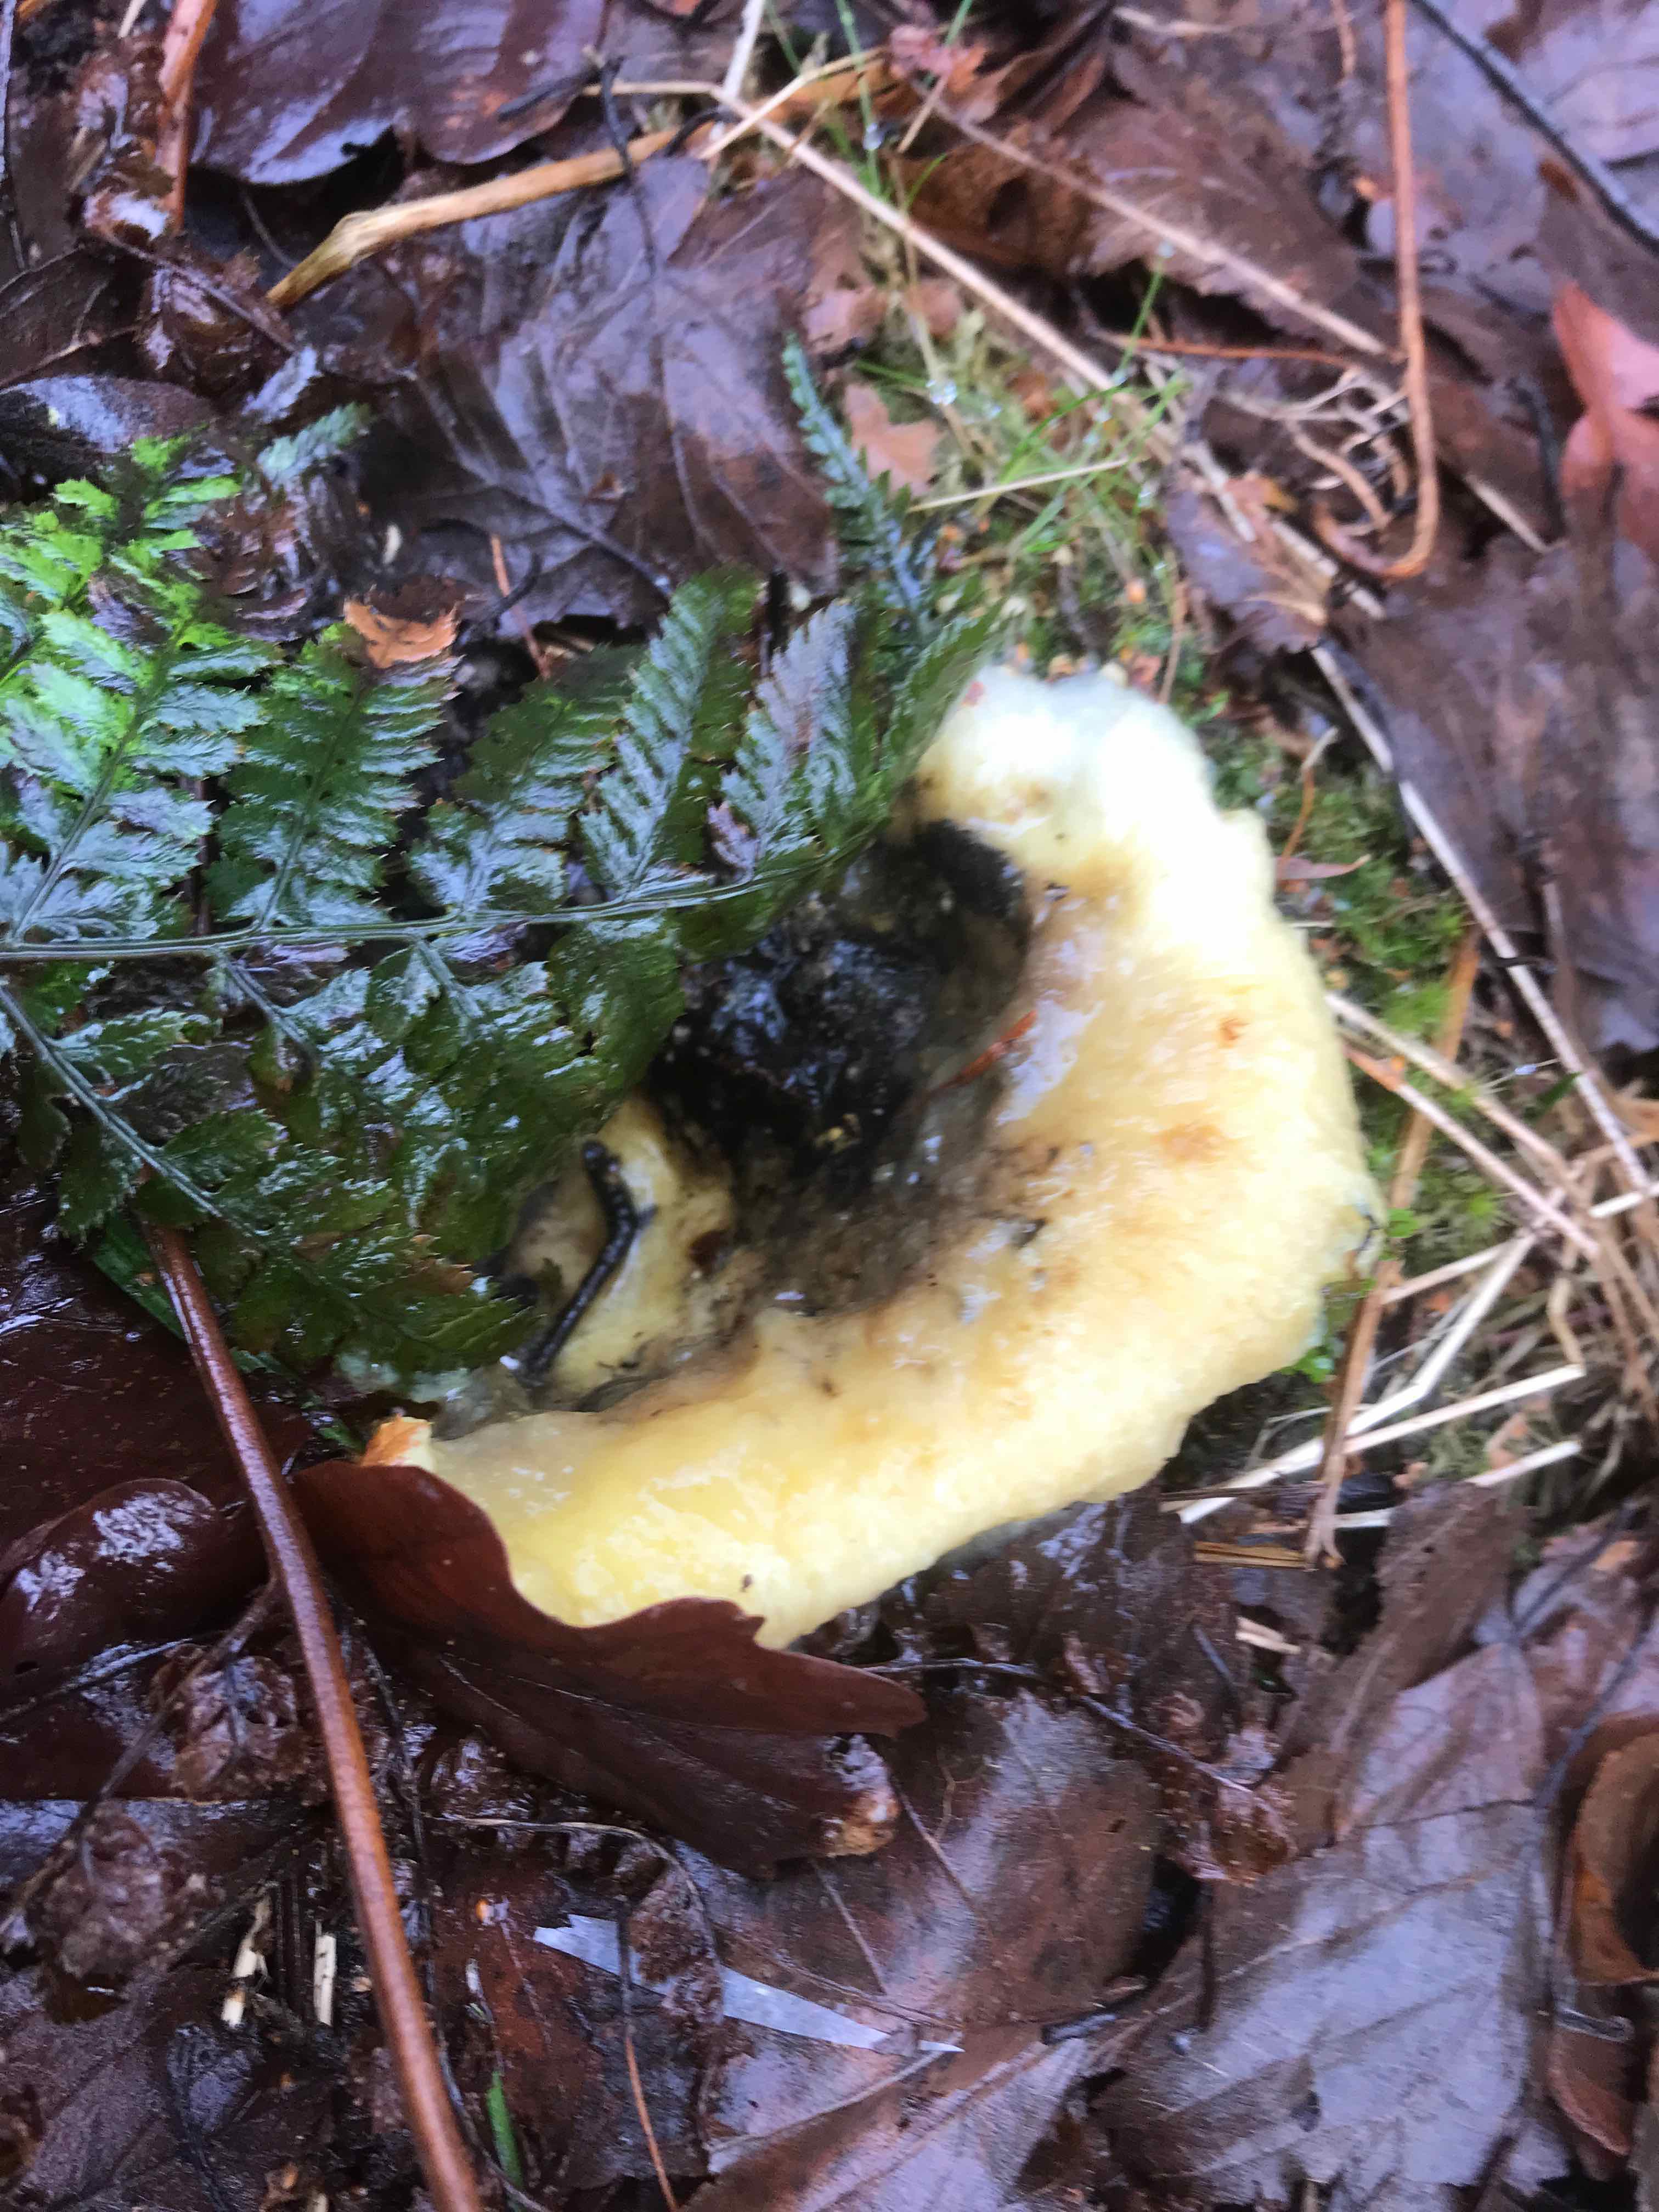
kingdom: Fungi
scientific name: Fungi
